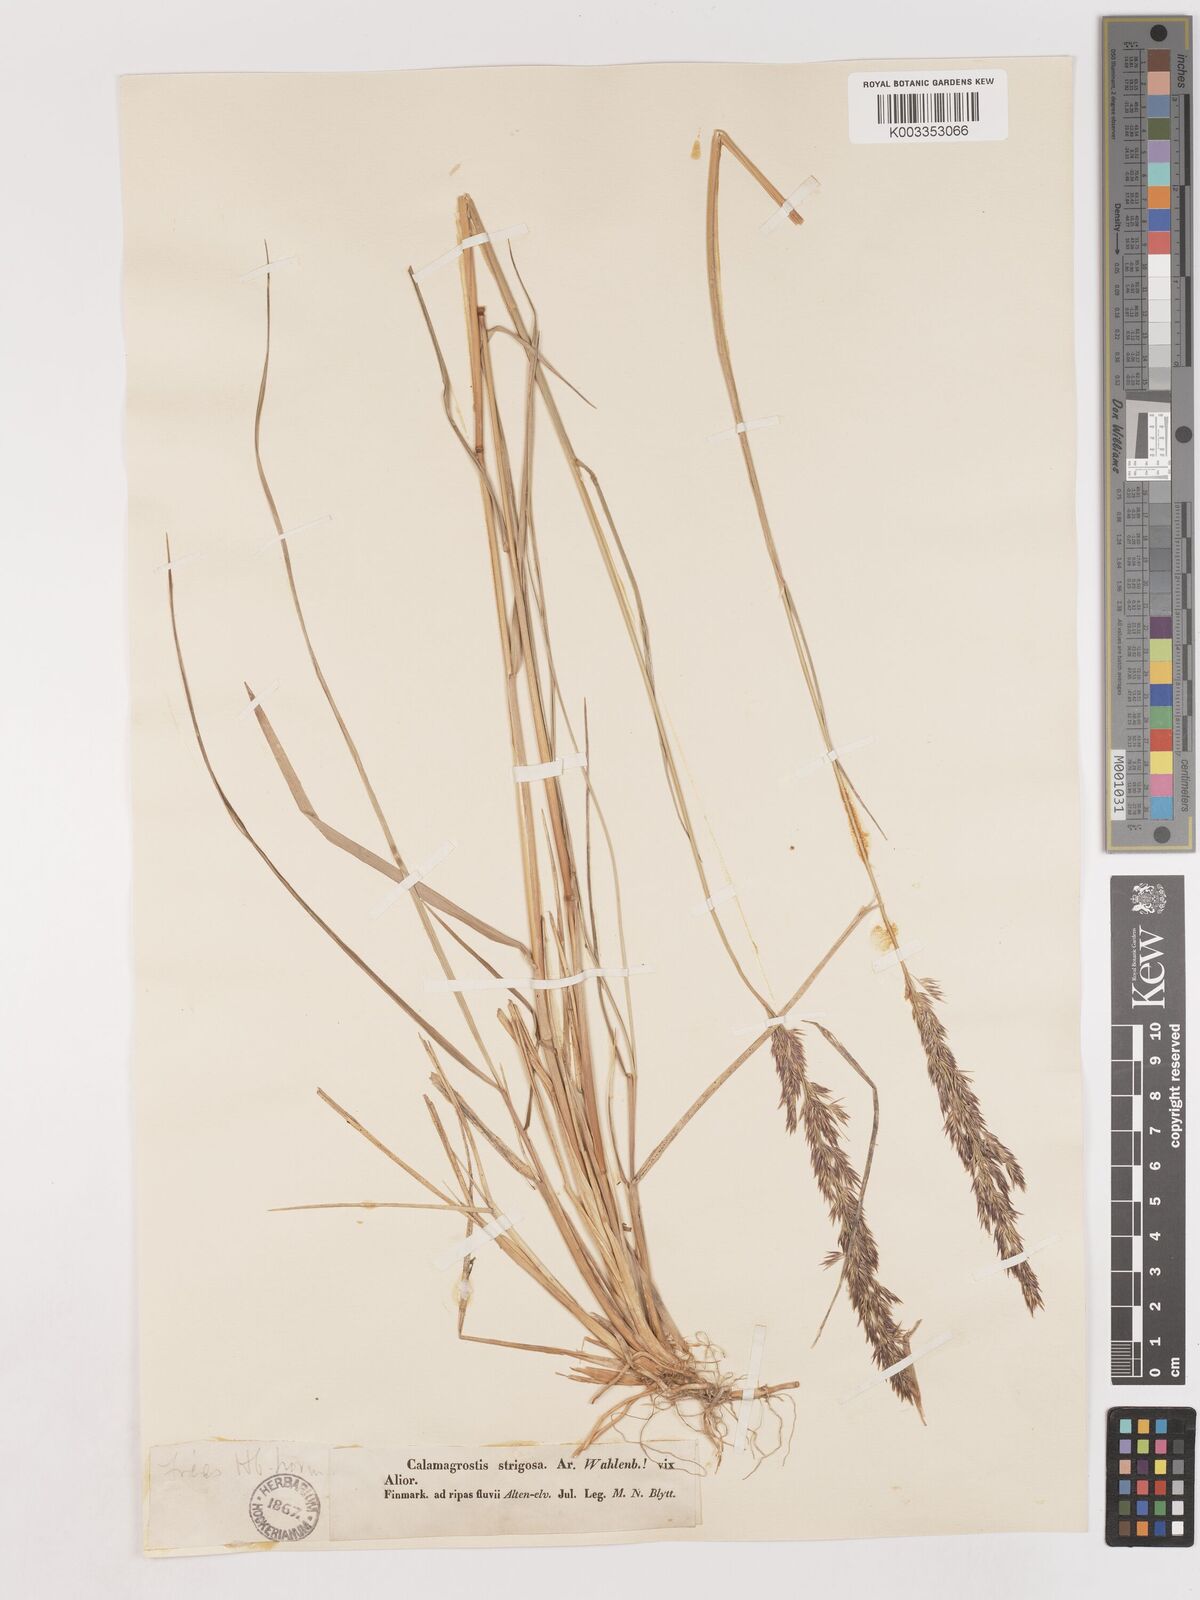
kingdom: Plantae
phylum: Tracheophyta
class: Liliopsida
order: Poales
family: Poaceae
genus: Calamagrostis
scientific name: Calamagrostis epigejos
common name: Wood small-reed
